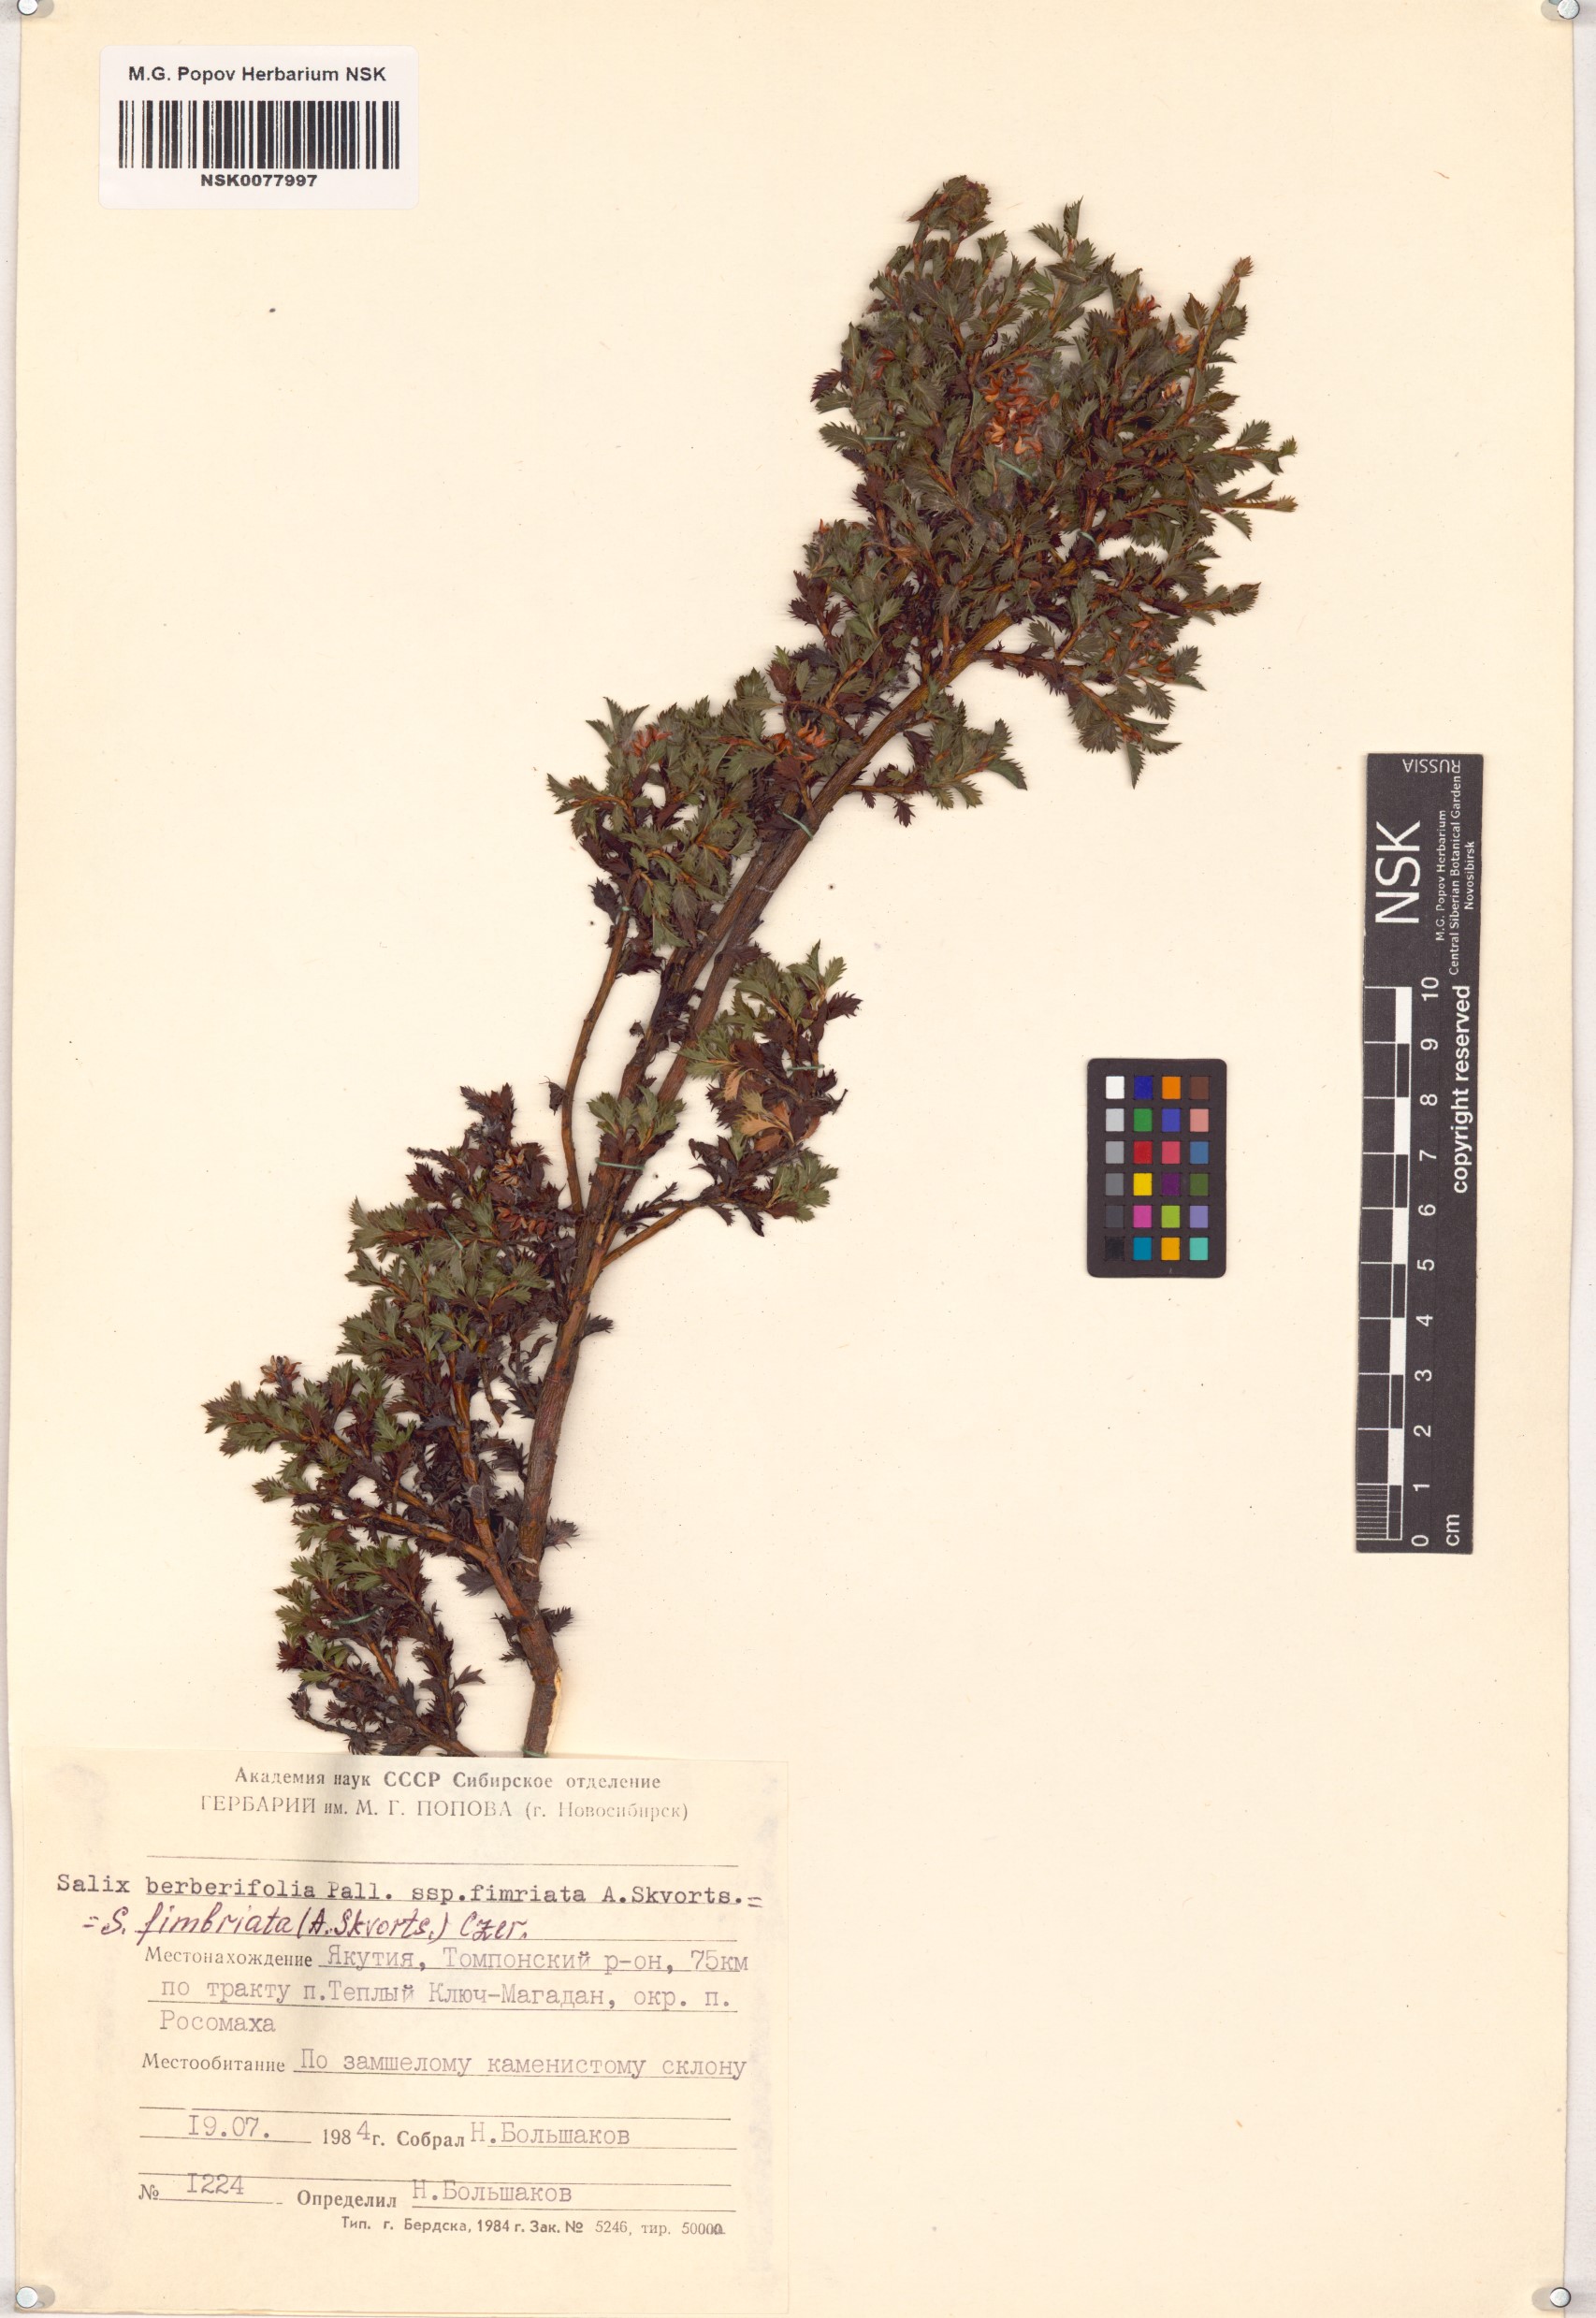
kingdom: Plantae
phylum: Tracheophyta
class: Magnoliopsida
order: Malpighiales
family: Salicaceae
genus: Salix
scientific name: Salix berberifolia
